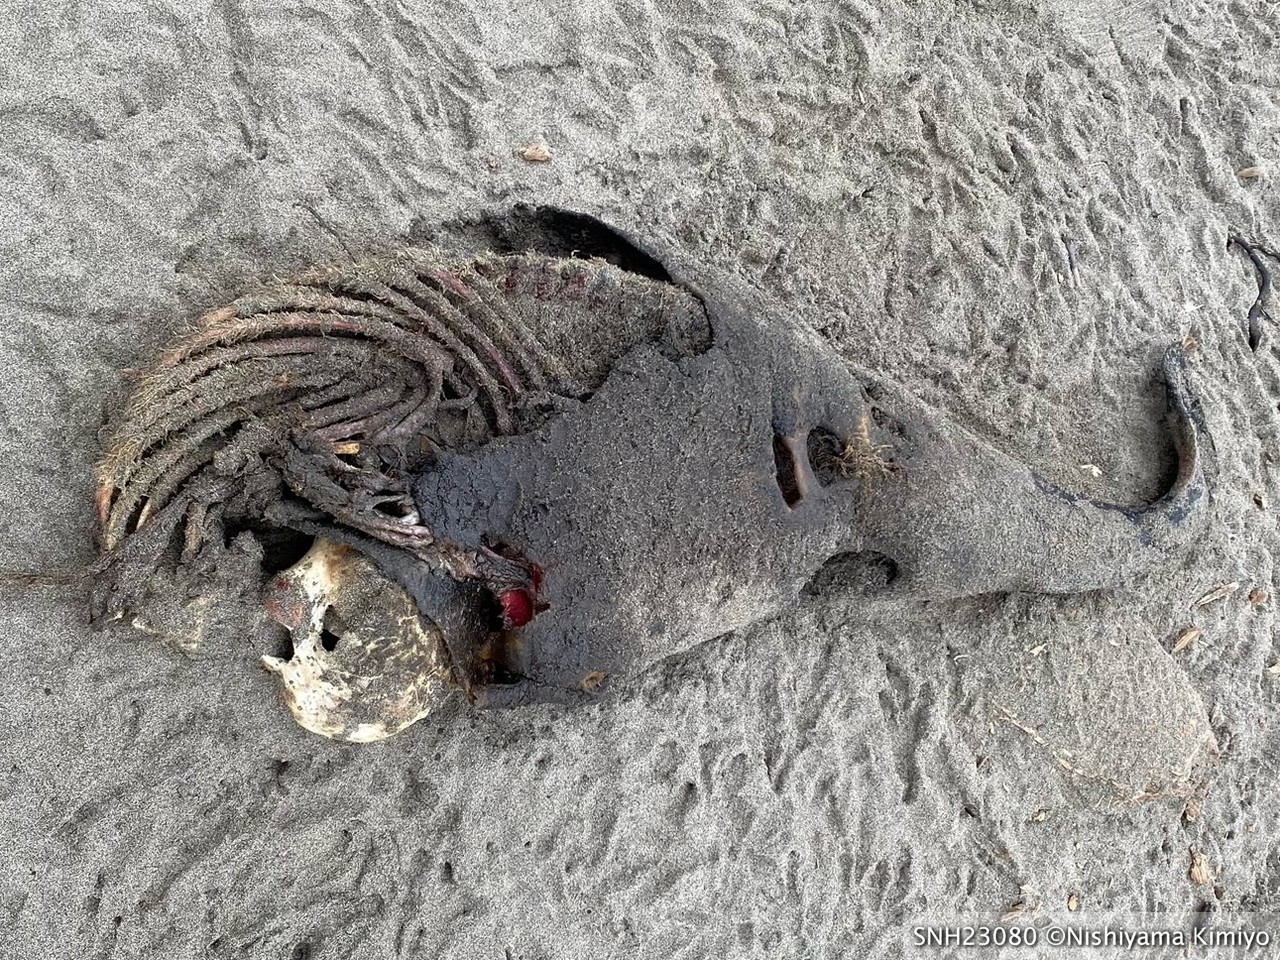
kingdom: Animalia
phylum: Chordata
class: Mammalia
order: Cetacea
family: Phocoenidae
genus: Phocoena
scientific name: Phocoena phocoena
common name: Harbour porpoise
